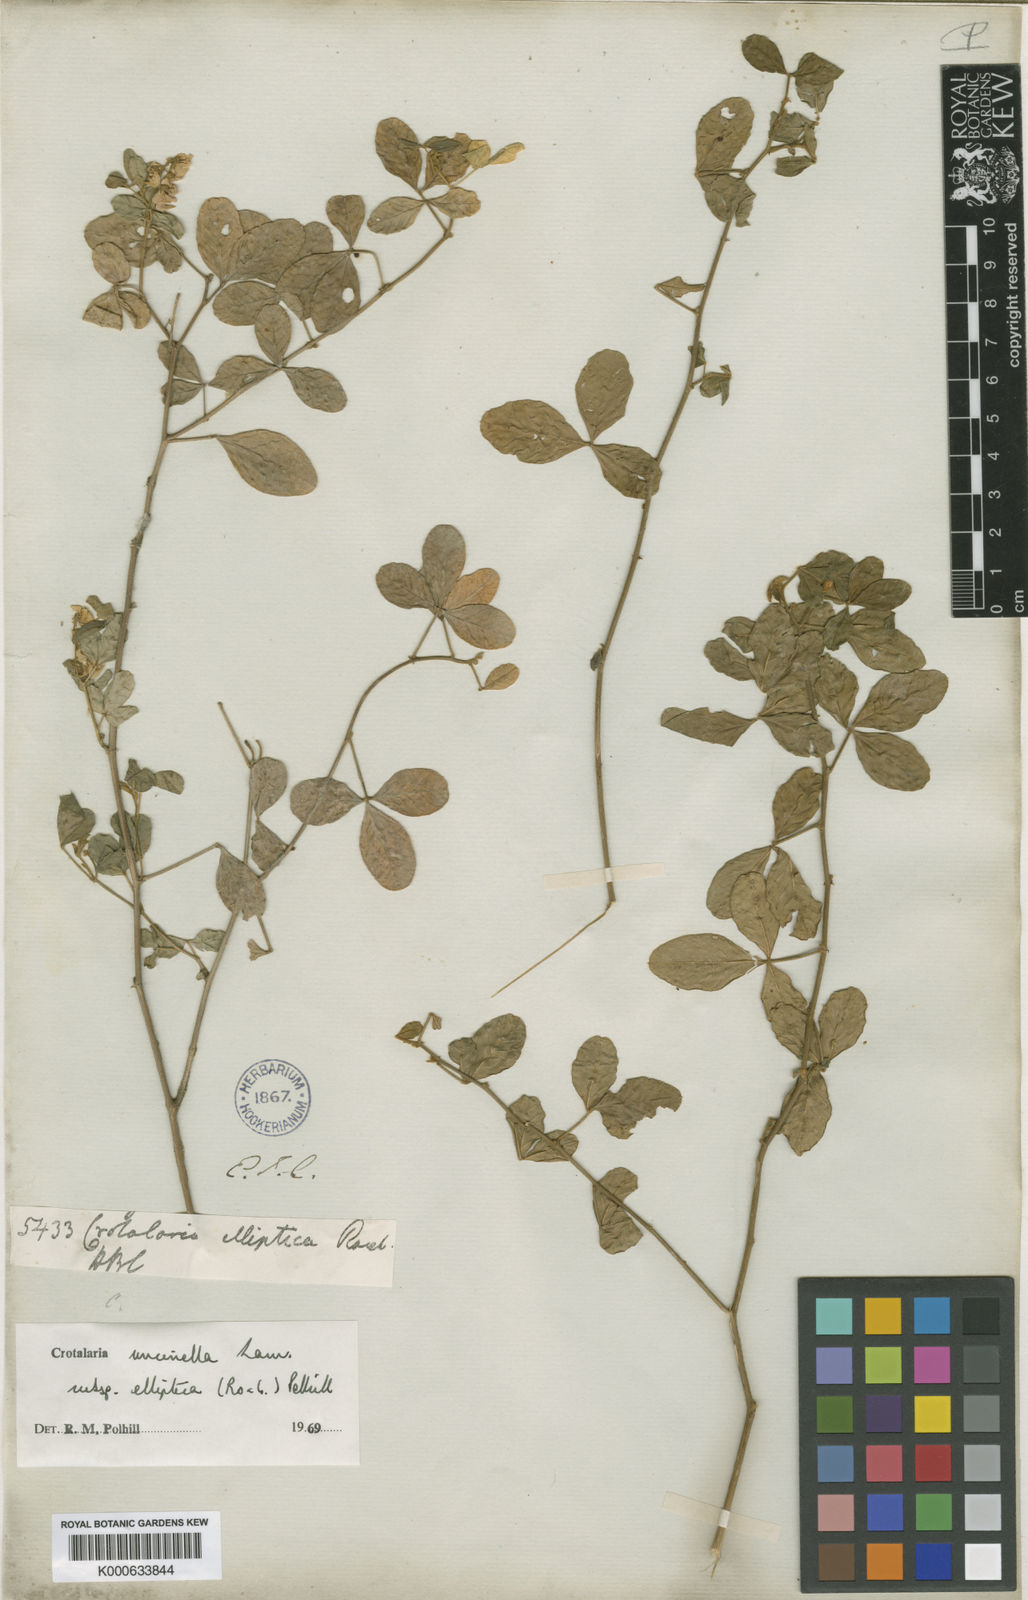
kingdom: Plantae
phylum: Tracheophyta
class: Magnoliopsida
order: Fabales
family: Fabaceae
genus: Crotalaria
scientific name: Crotalaria uncinella
